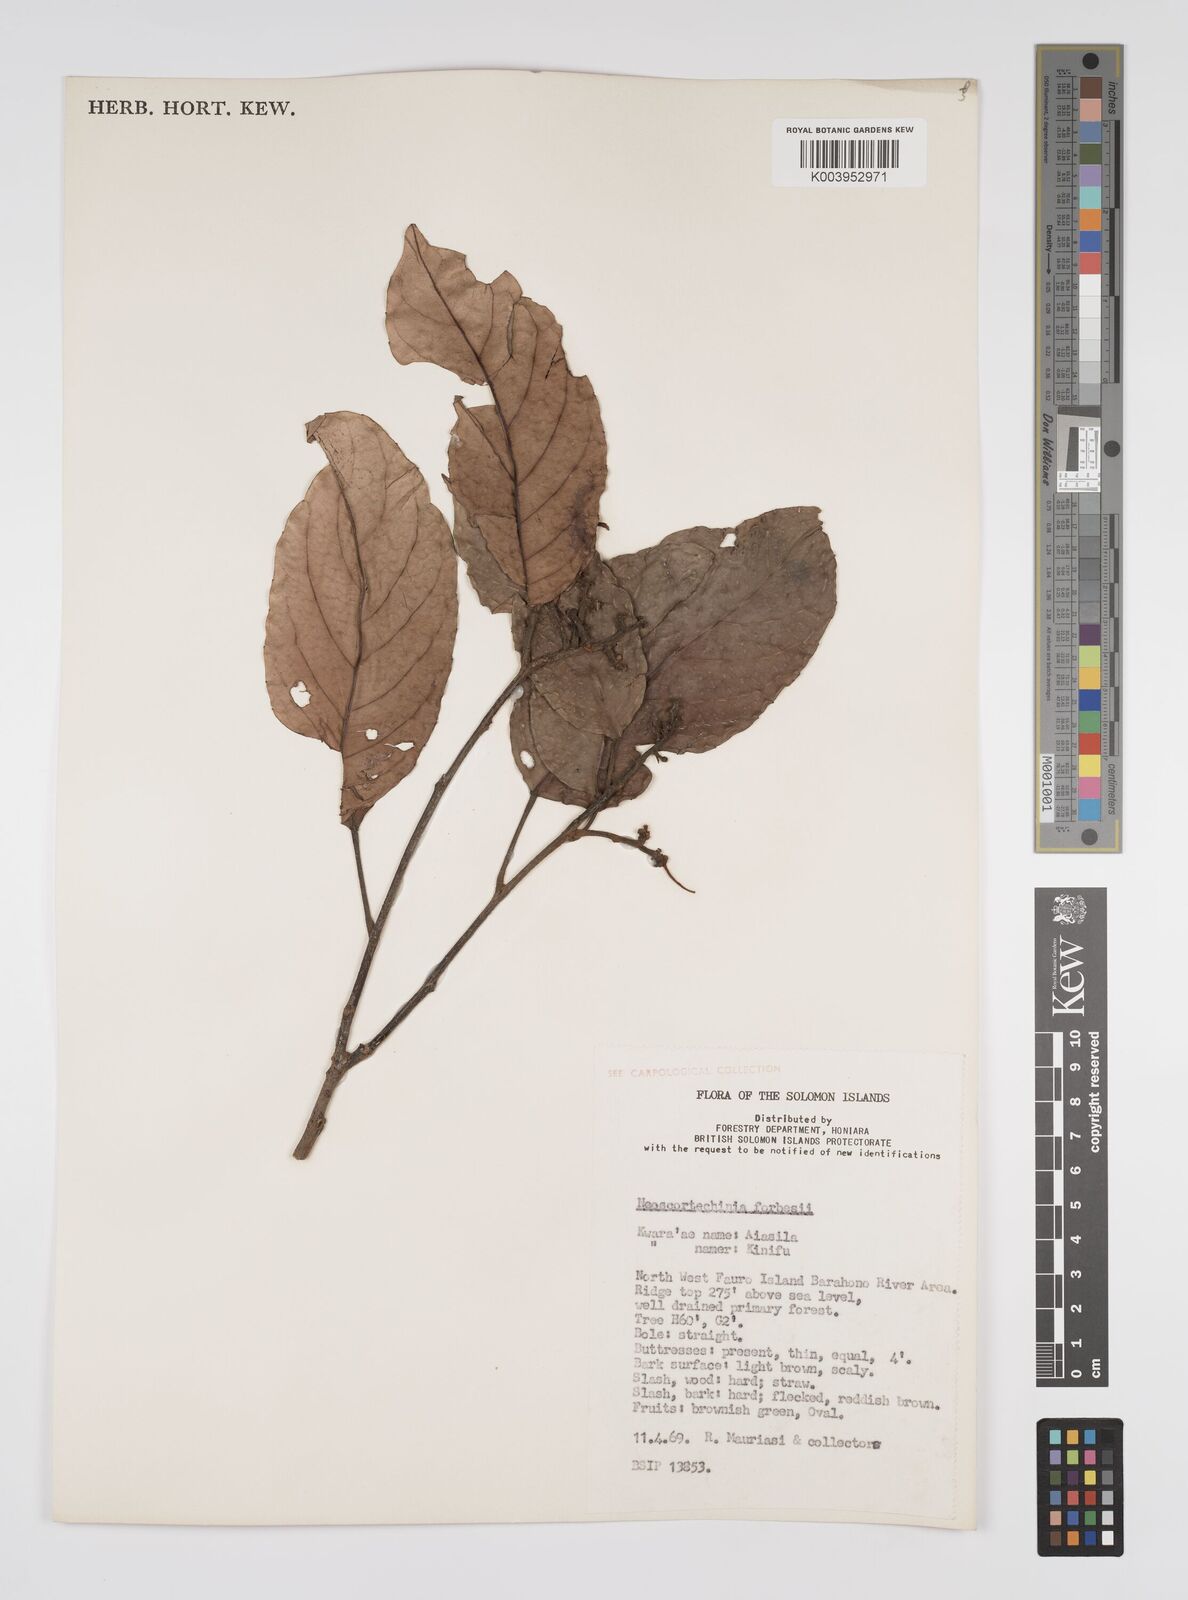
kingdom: Plantae
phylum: Tracheophyta
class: Magnoliopsida
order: Malpighiales
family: Euphorbiaceae
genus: Neoscortechinia
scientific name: Neoscortechinia forbesii
